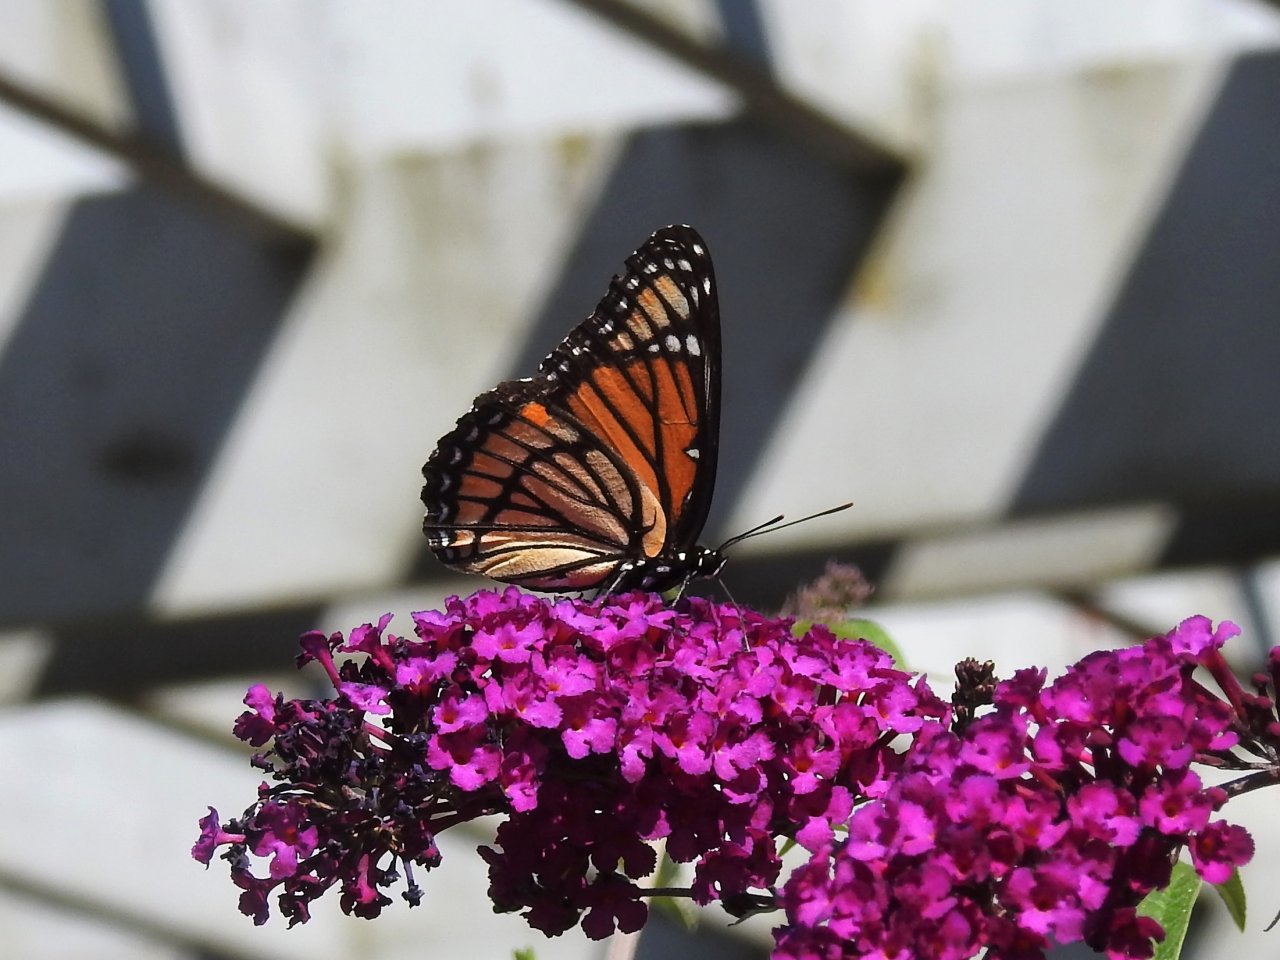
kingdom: Animalia
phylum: Arthropoda
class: Insecta
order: Lepidoptera
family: Nymphalidae
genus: Limenitis
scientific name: Limenitis archippus
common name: Viceroy
